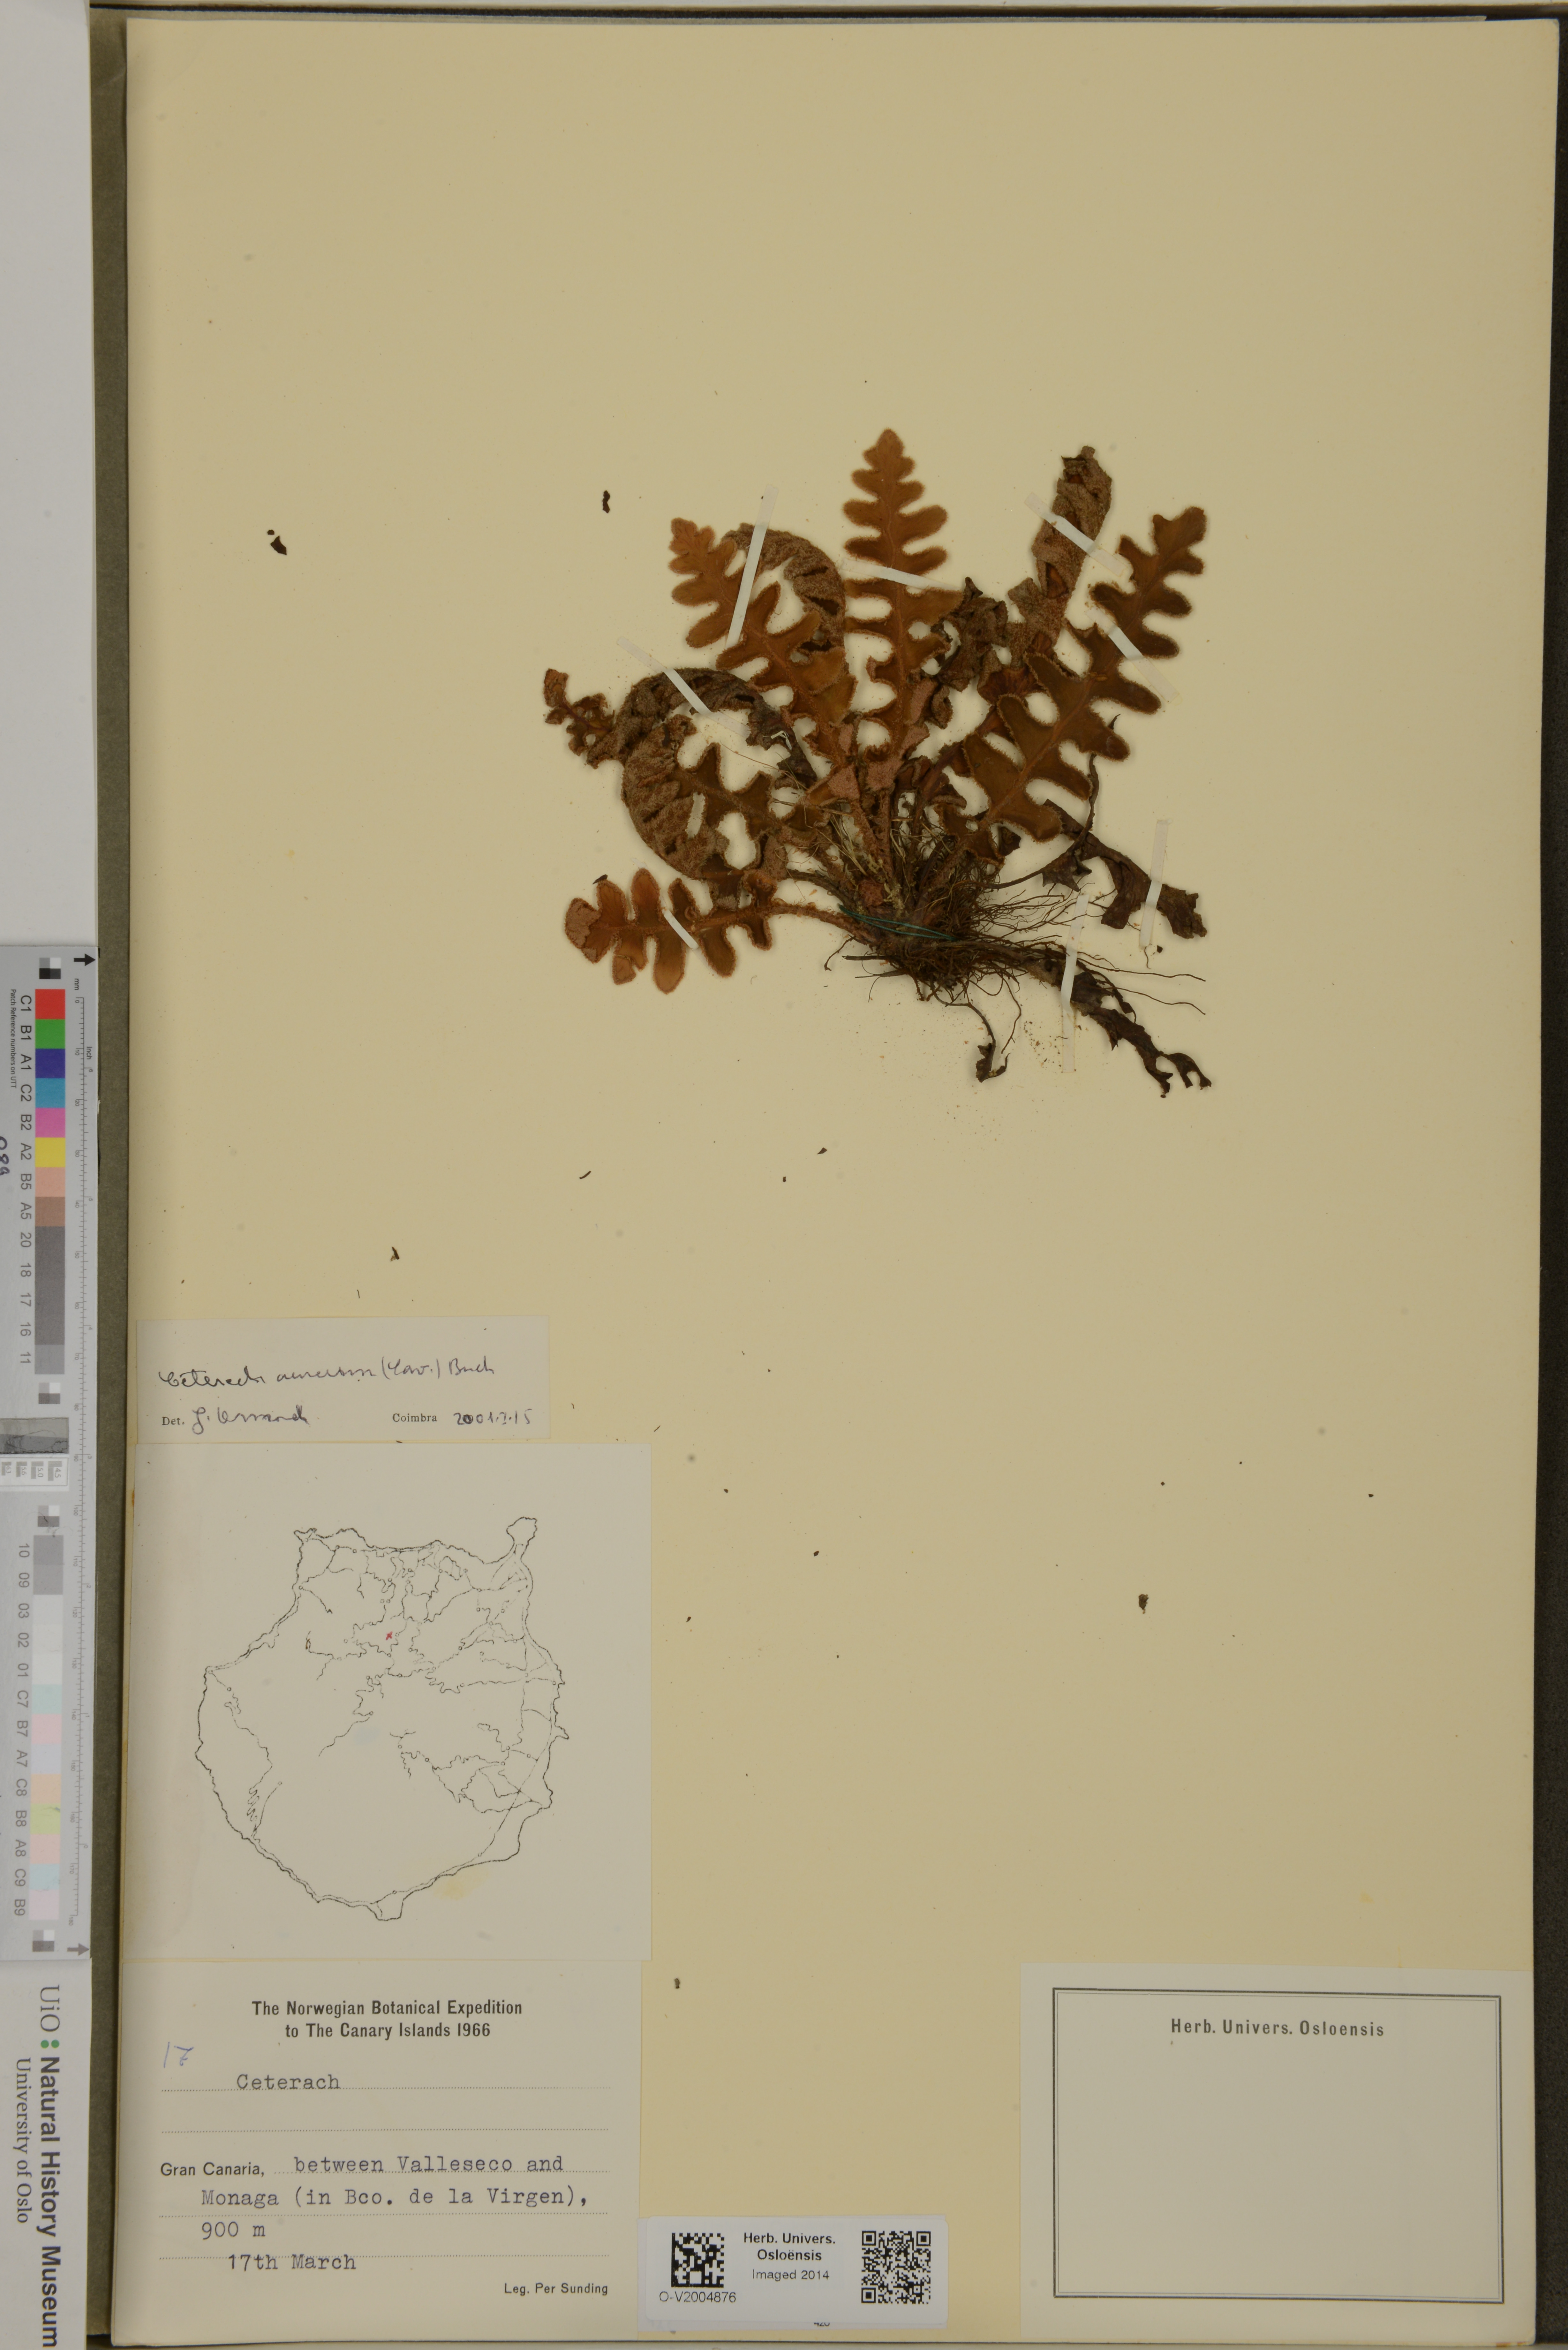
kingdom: Plantae
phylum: Tracheophyta
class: Polypodiopsida
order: Polypodiales
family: Aspleniaceae
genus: Asplenium
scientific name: Asplenium aureum
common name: Golden rustyback fern
